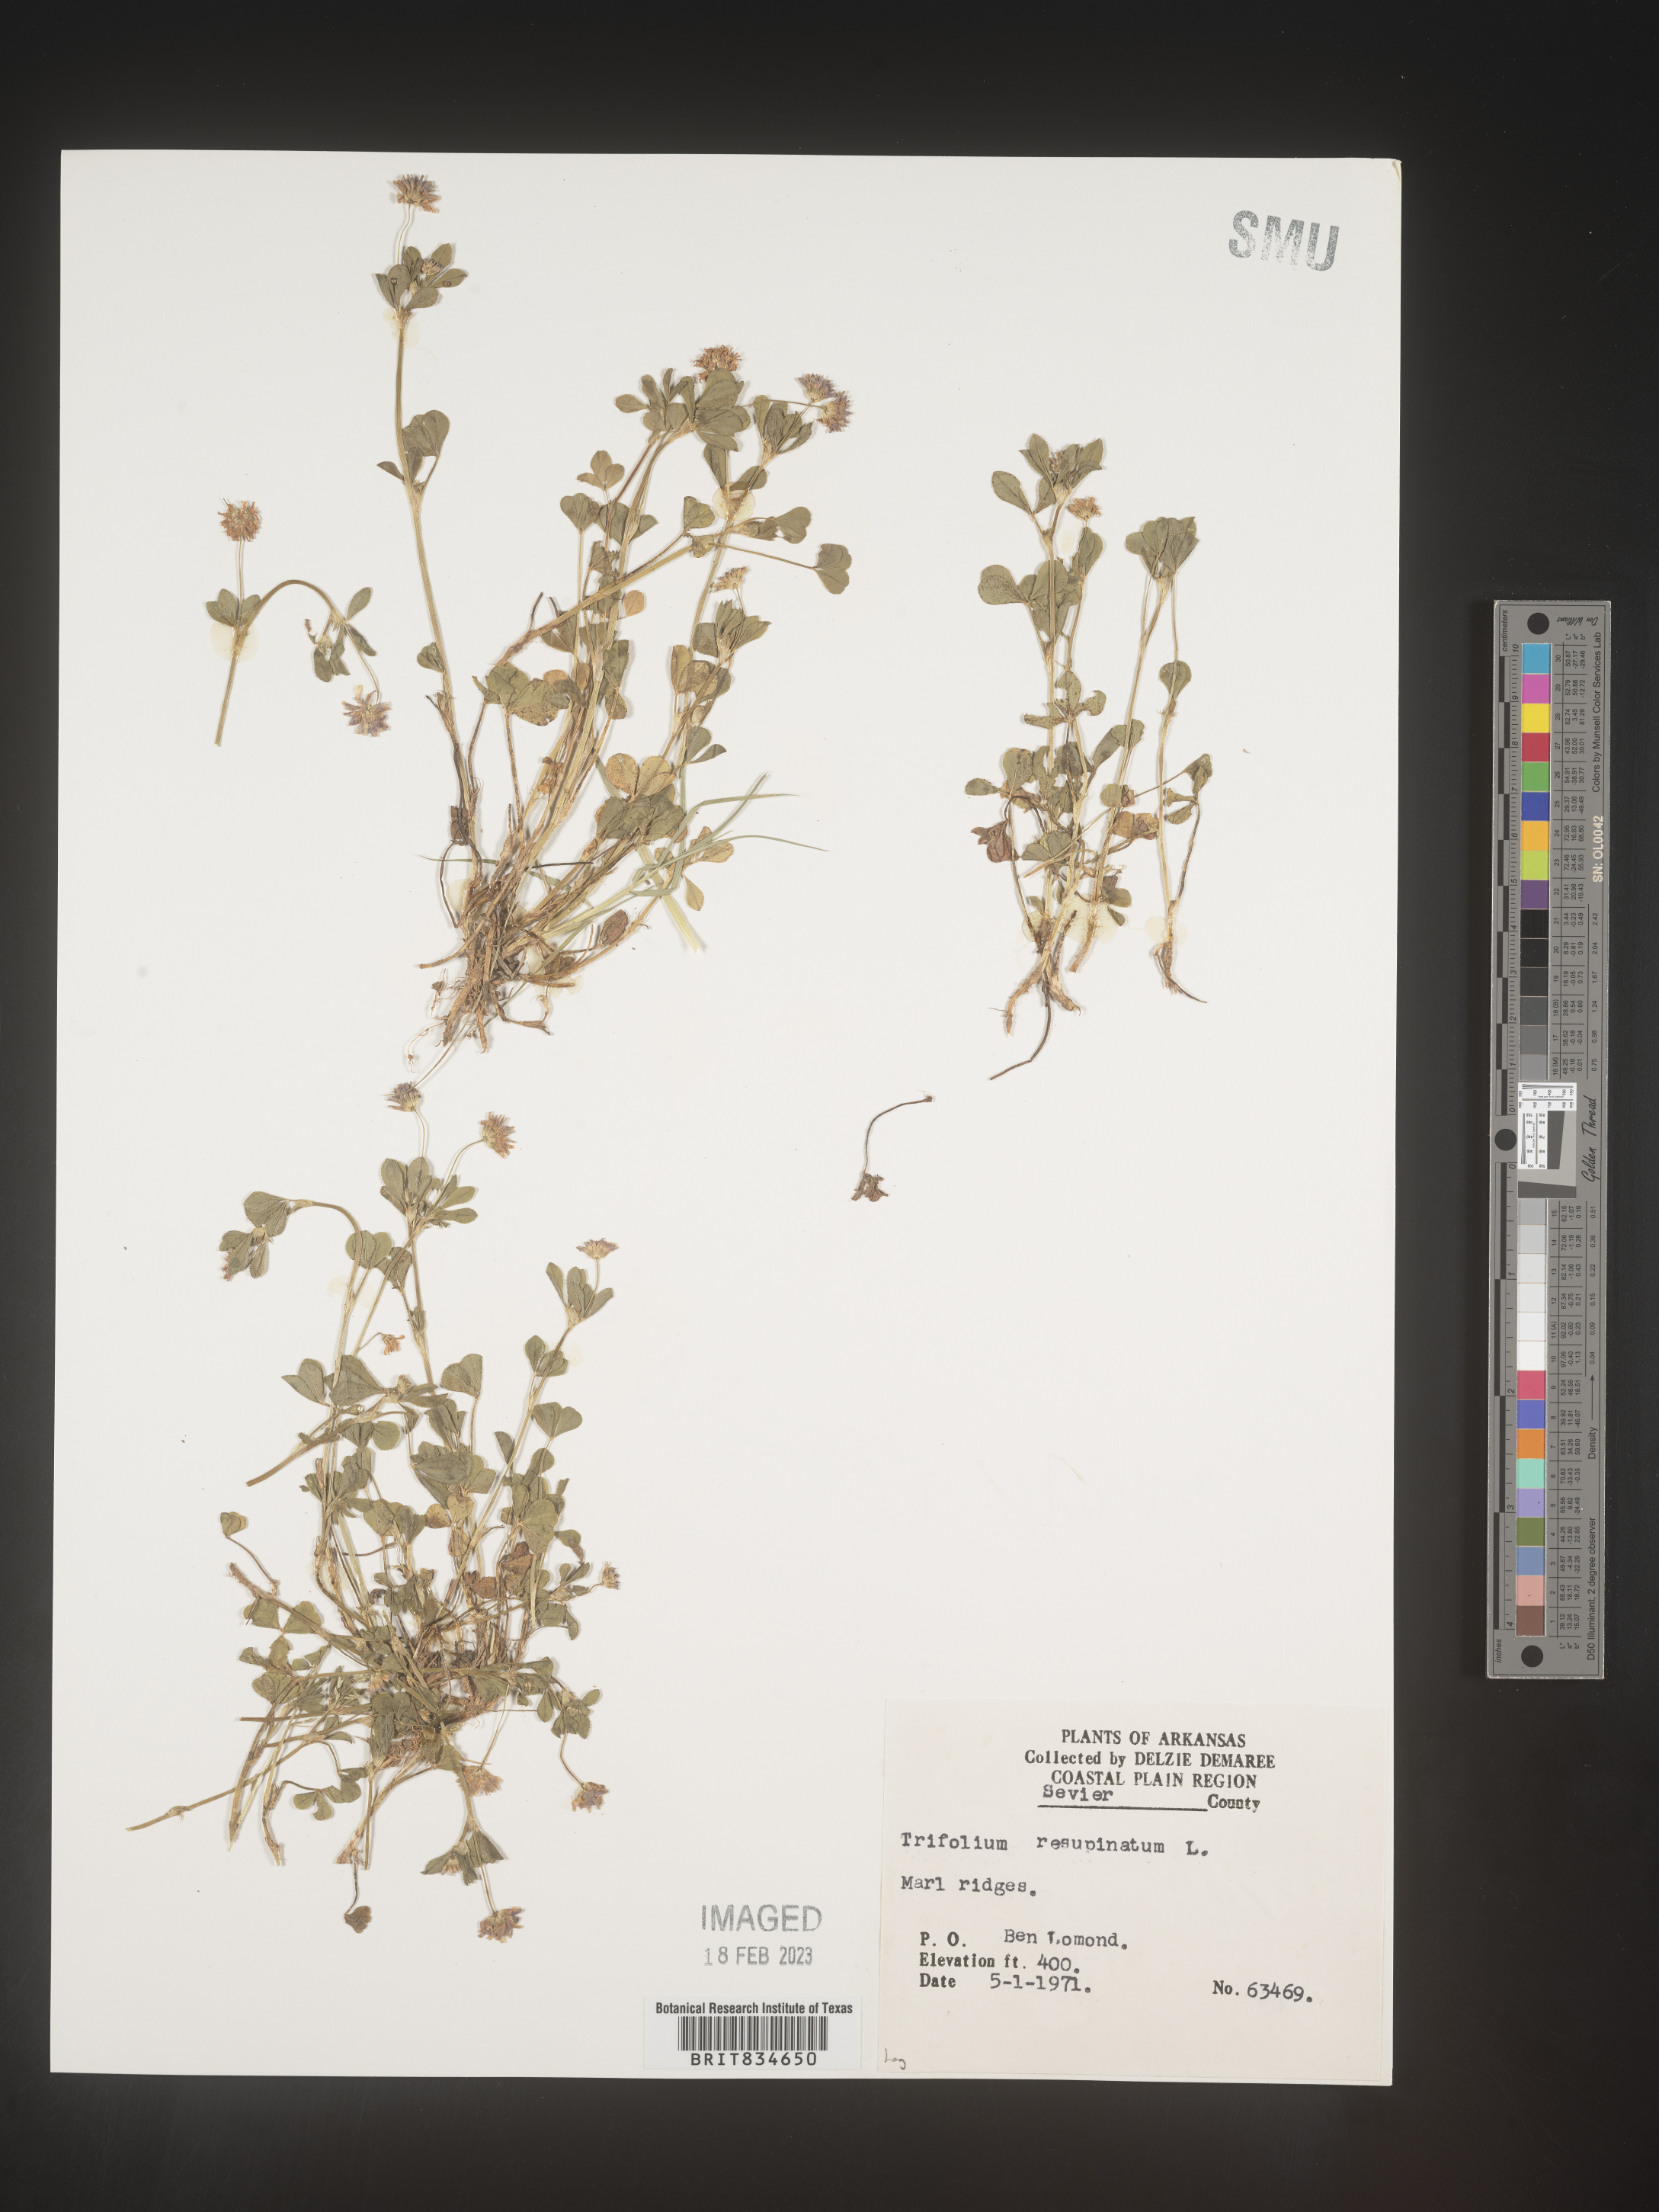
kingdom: Plantae
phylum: Tracheophyta
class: Magnoliopsida
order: Fabales
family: Fabaceae
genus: Trifolium
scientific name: Trifolium resupinatum
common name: Reversed clover
